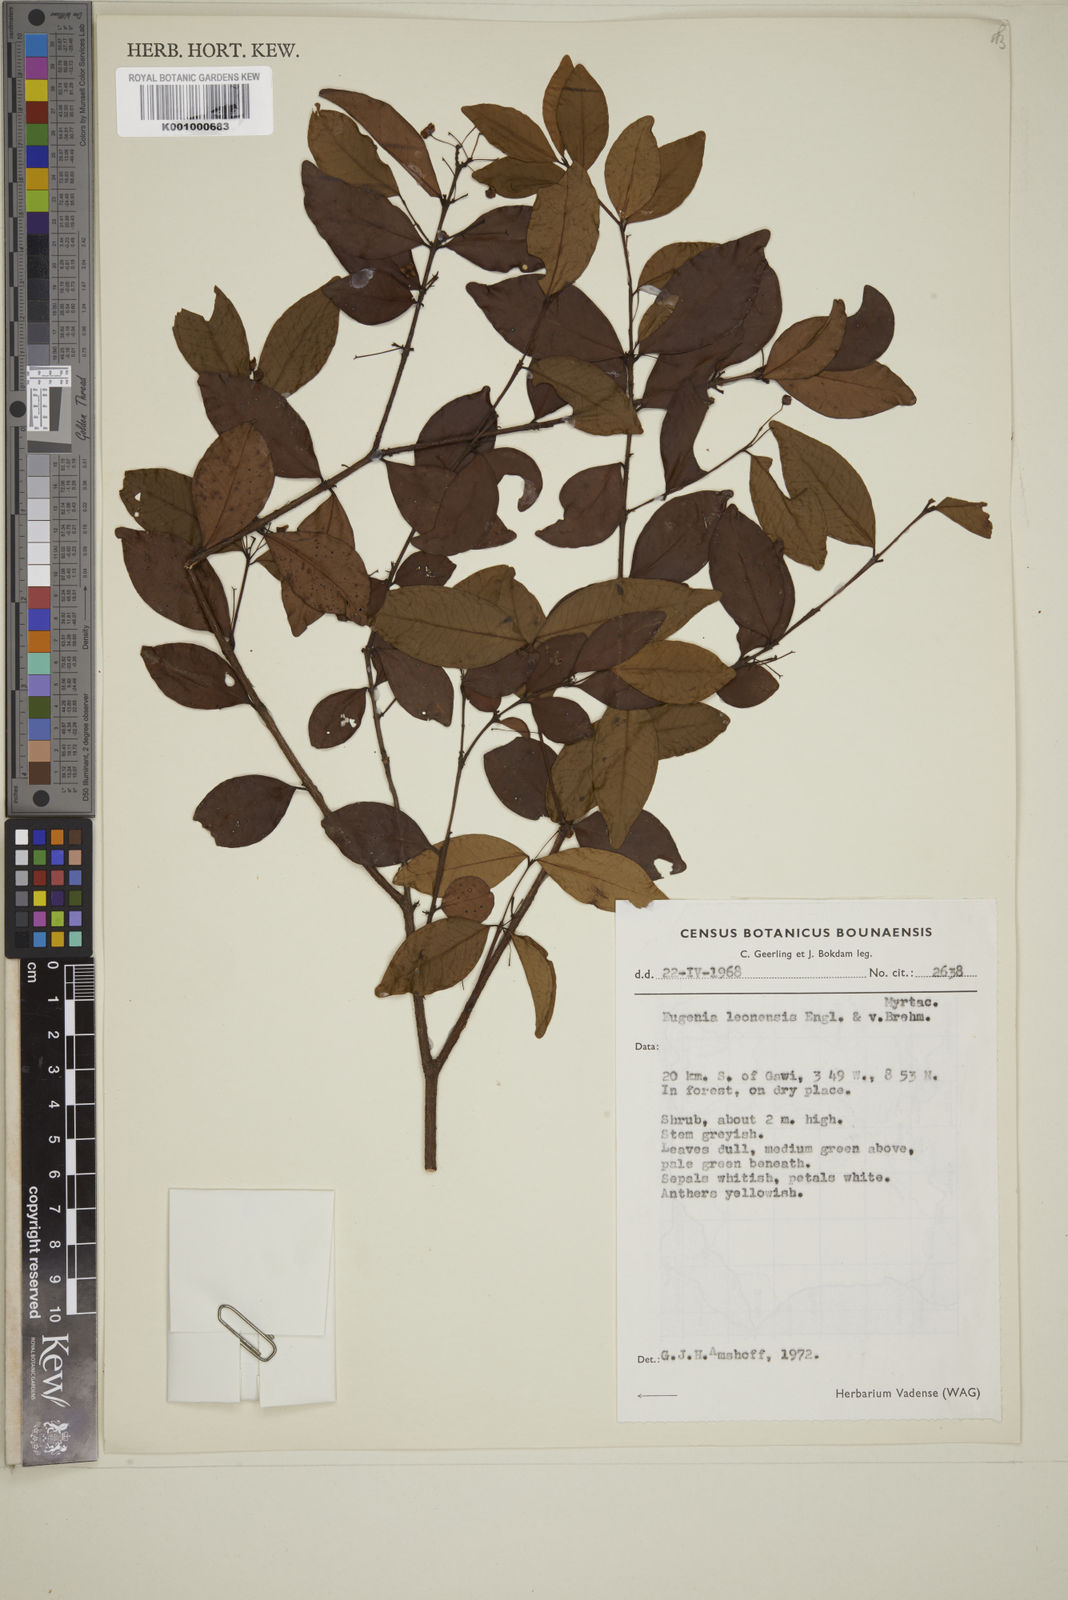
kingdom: Plantae
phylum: Tracheophyta
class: Magnoliopsida
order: Myrtales
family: Myrtaceae
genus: Eugenia
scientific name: Eugenia leonensis
